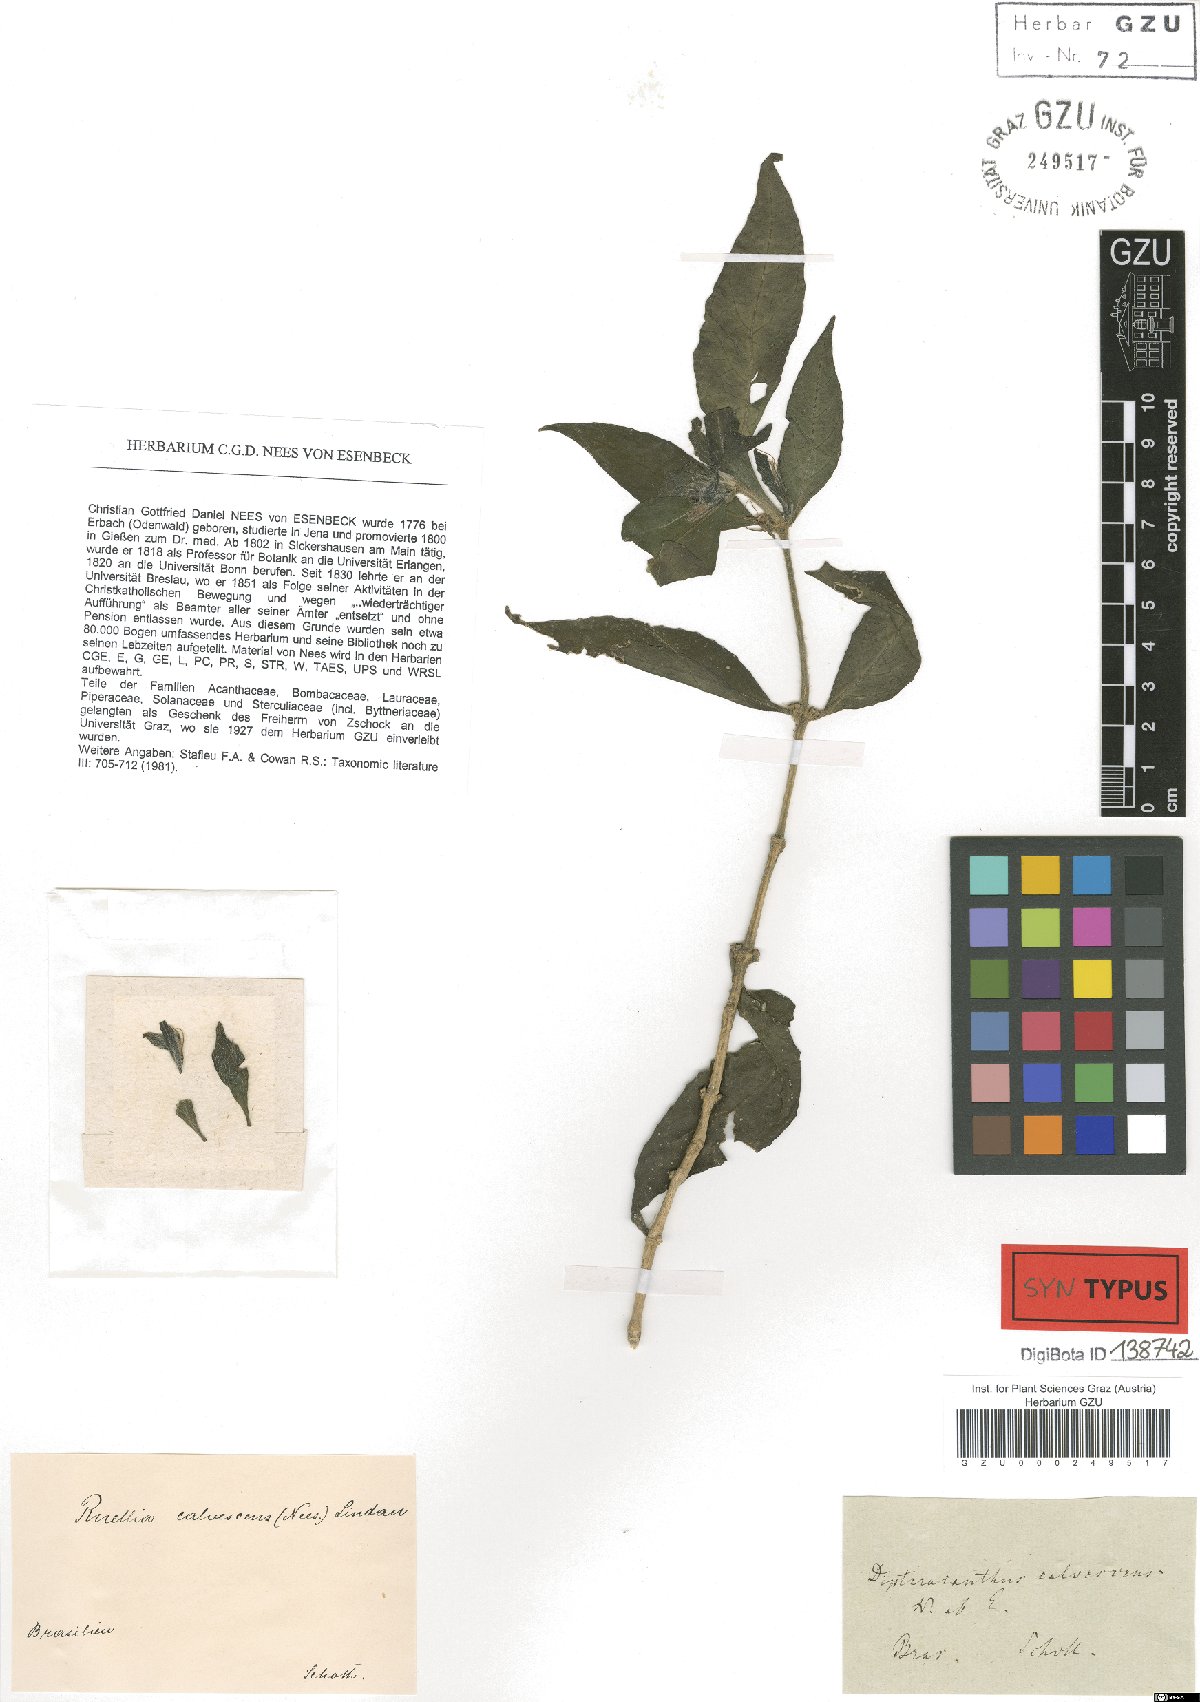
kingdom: Plantae
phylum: Tracheophyta
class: Magnoliopsida
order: Lamiales
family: Acanthaceae
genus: Ruellia
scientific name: Ruellia solitaria
